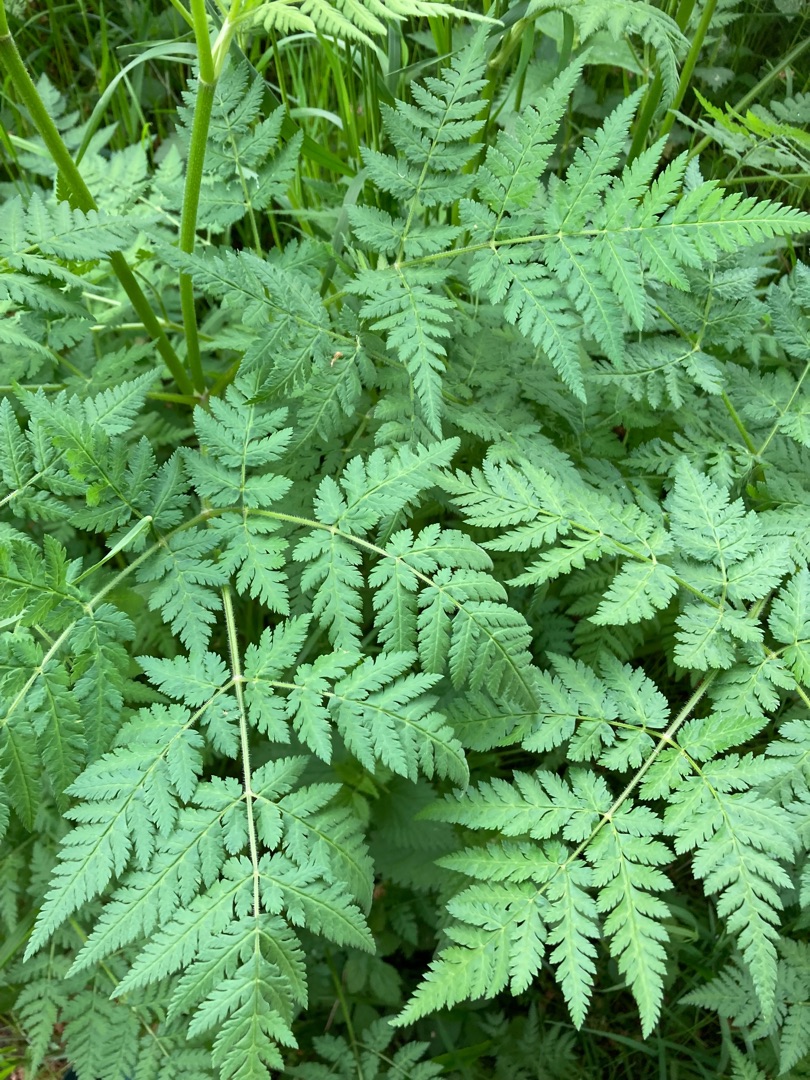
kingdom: Plantae
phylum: Tracheophyta
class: Magnoliopsida
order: Apiales
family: Apiaceae
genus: Myrrhis
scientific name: Myrrhis odorata
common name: Sødskærm
